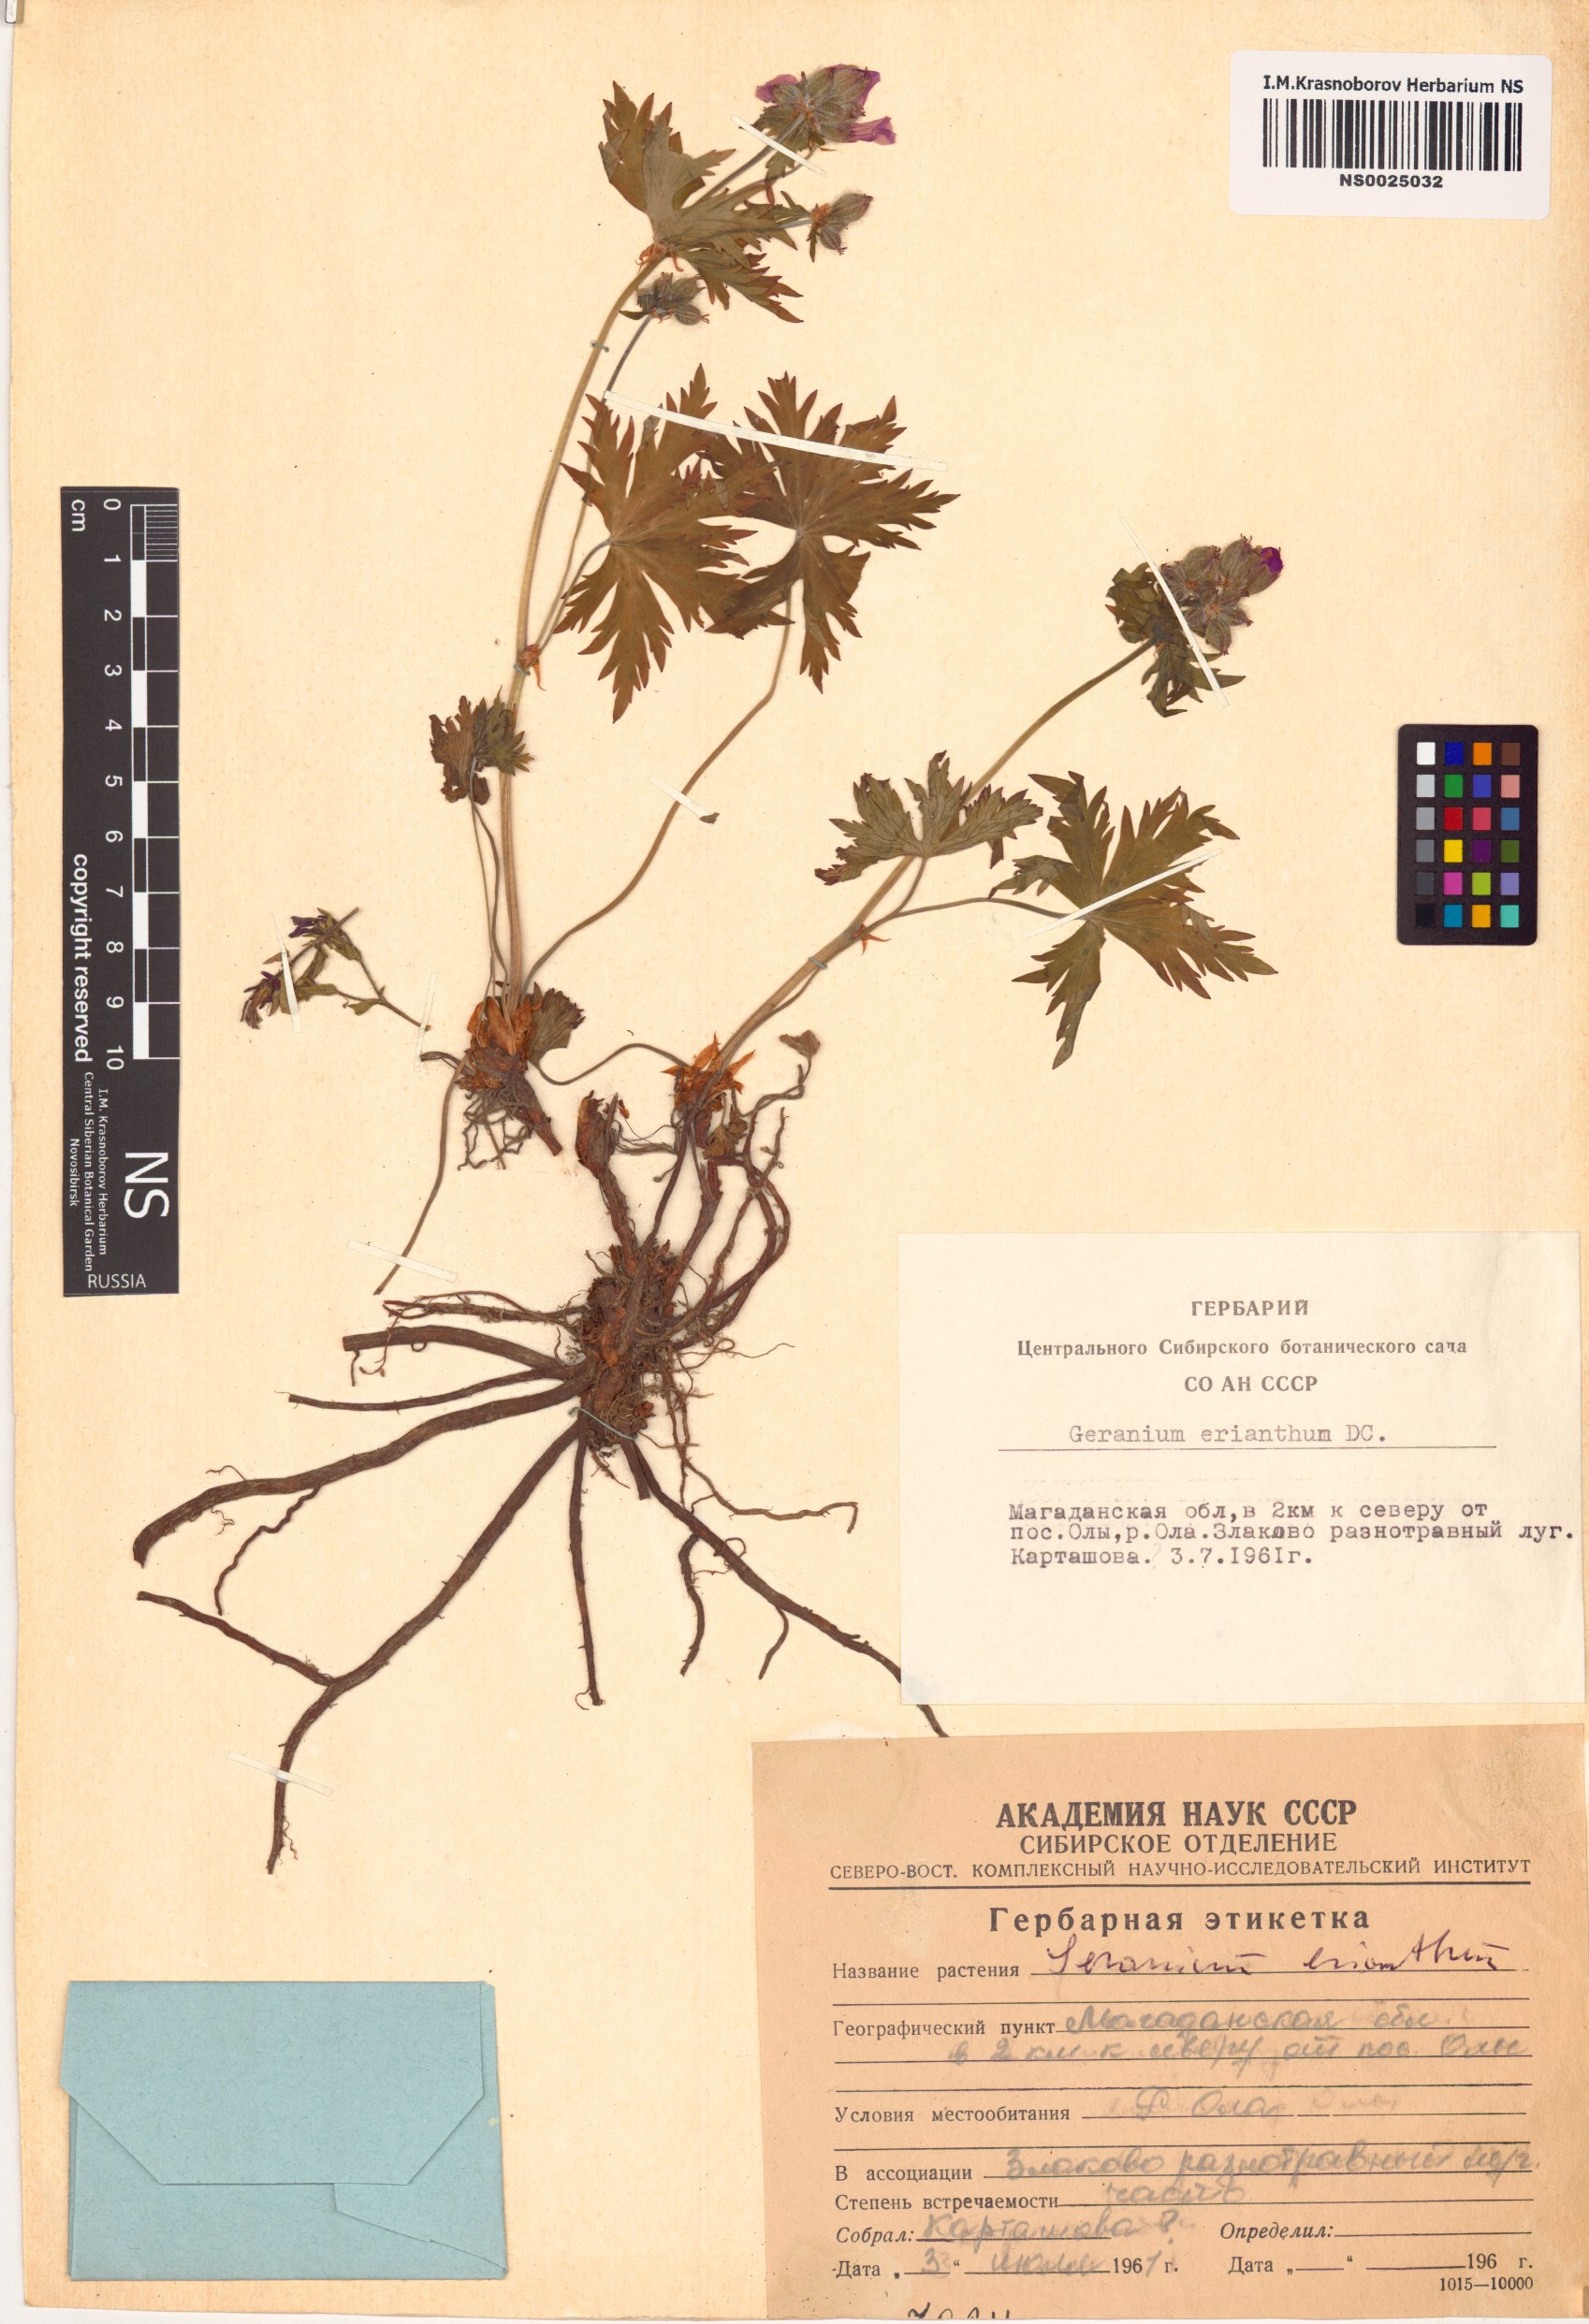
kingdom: Plantae
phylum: Tracheophyta
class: Magnoliopsida
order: Geraniales
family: Geraniaceae
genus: Geranium
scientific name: Geranium erianthum
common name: Northern crane's-bill
